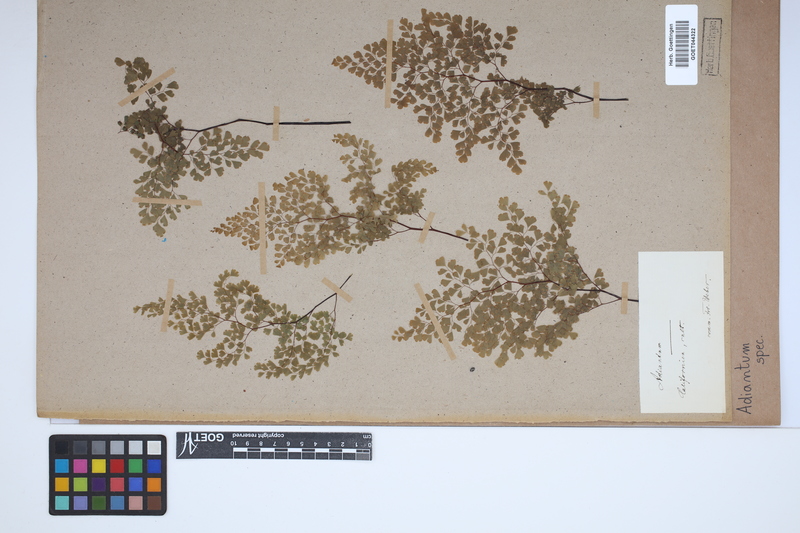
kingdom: Plantae
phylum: Tracheophyta
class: Polypodiopsida
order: Polypodiales
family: Pteridaceae
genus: Adiantum
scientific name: Adiantum
